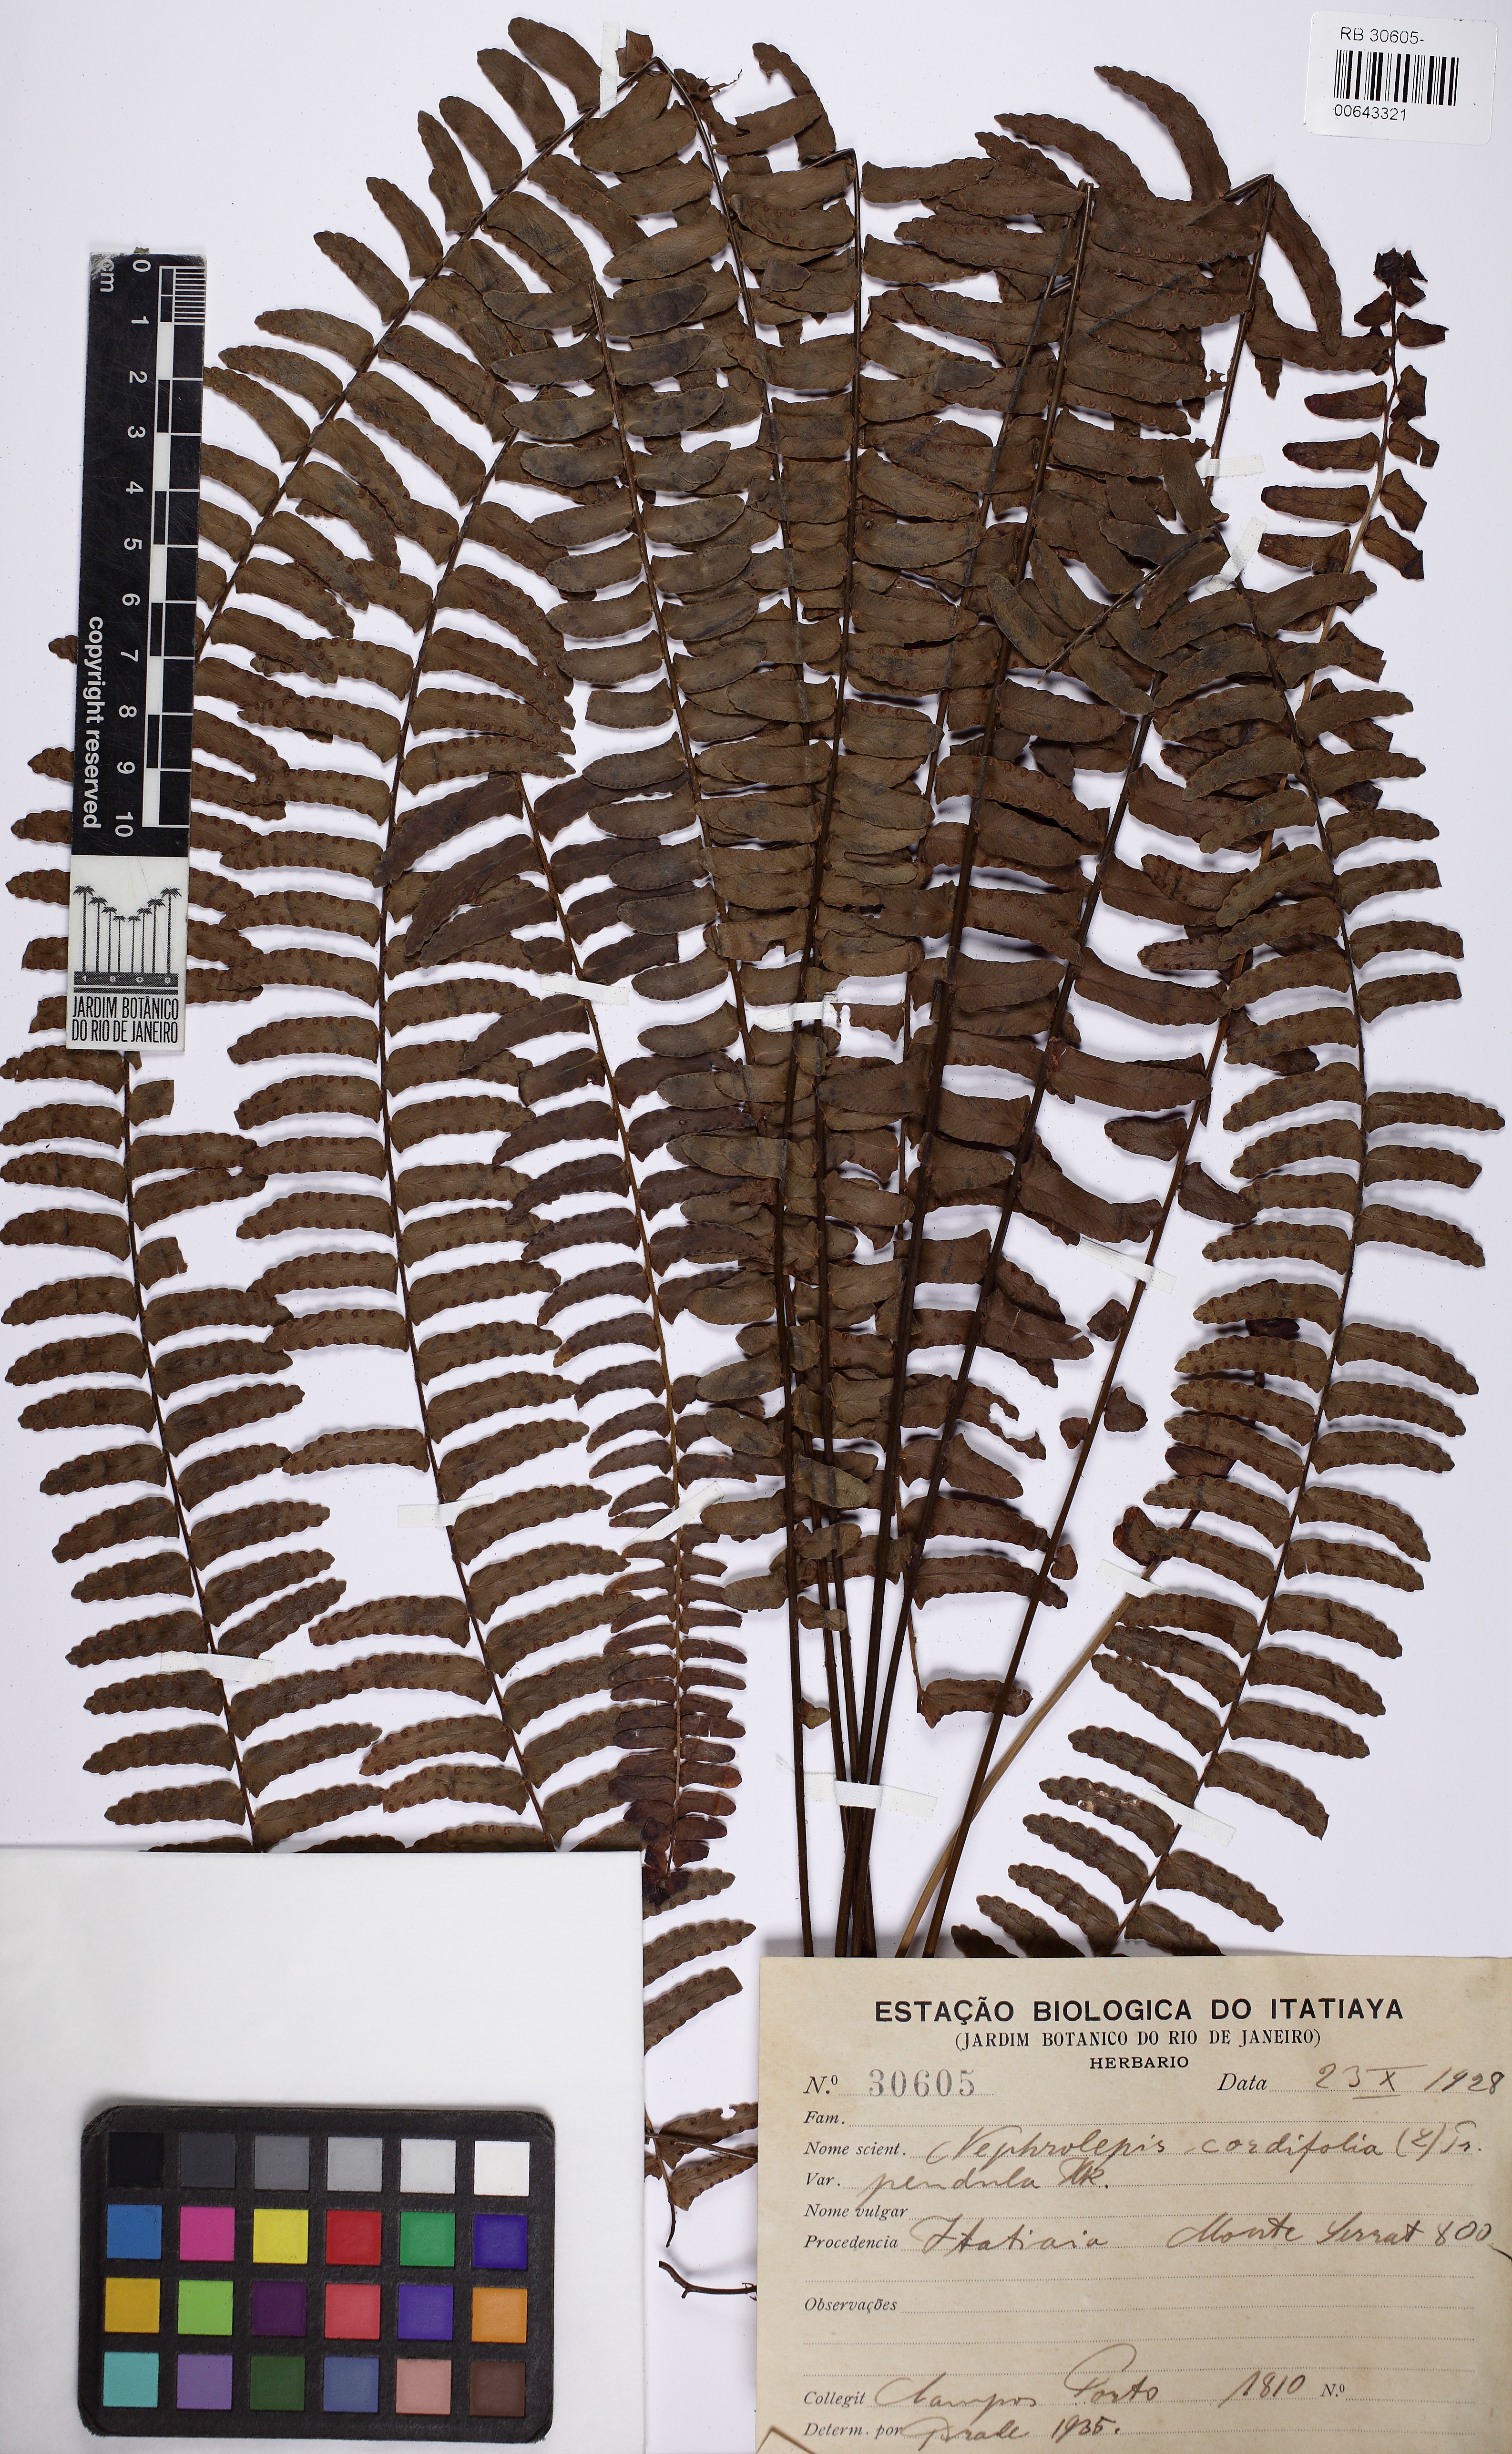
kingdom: Plantae
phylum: Tracheophyta
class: Polypodiopsida
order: Polypodiales
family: Nephrolepidaceae
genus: Nephrolepis
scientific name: Nephrolepis cordifolia
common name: Narrow swordfern
